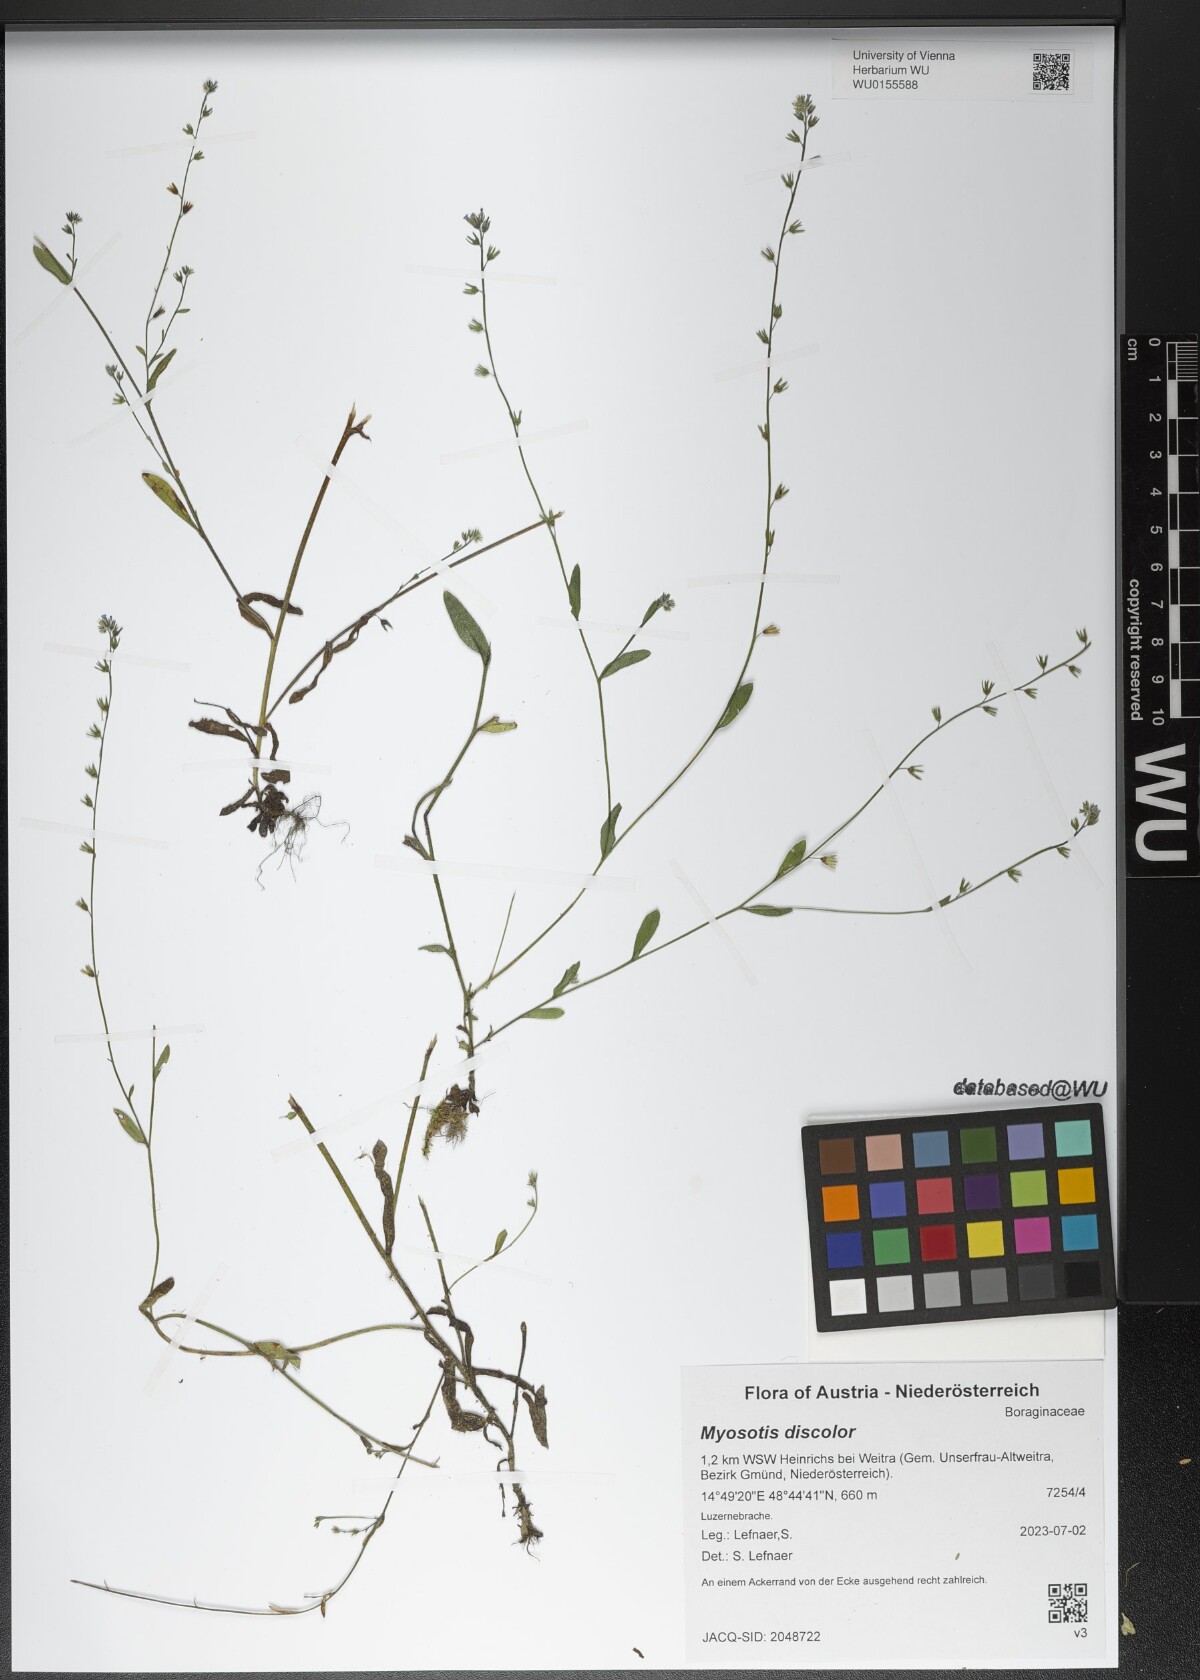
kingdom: Plantae
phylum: Tracheophyta
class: Magnoliopsida
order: Boraginales
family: Boraginaceae
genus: Myosotis
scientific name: Myosotis discolor
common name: Changing forget-me-not
